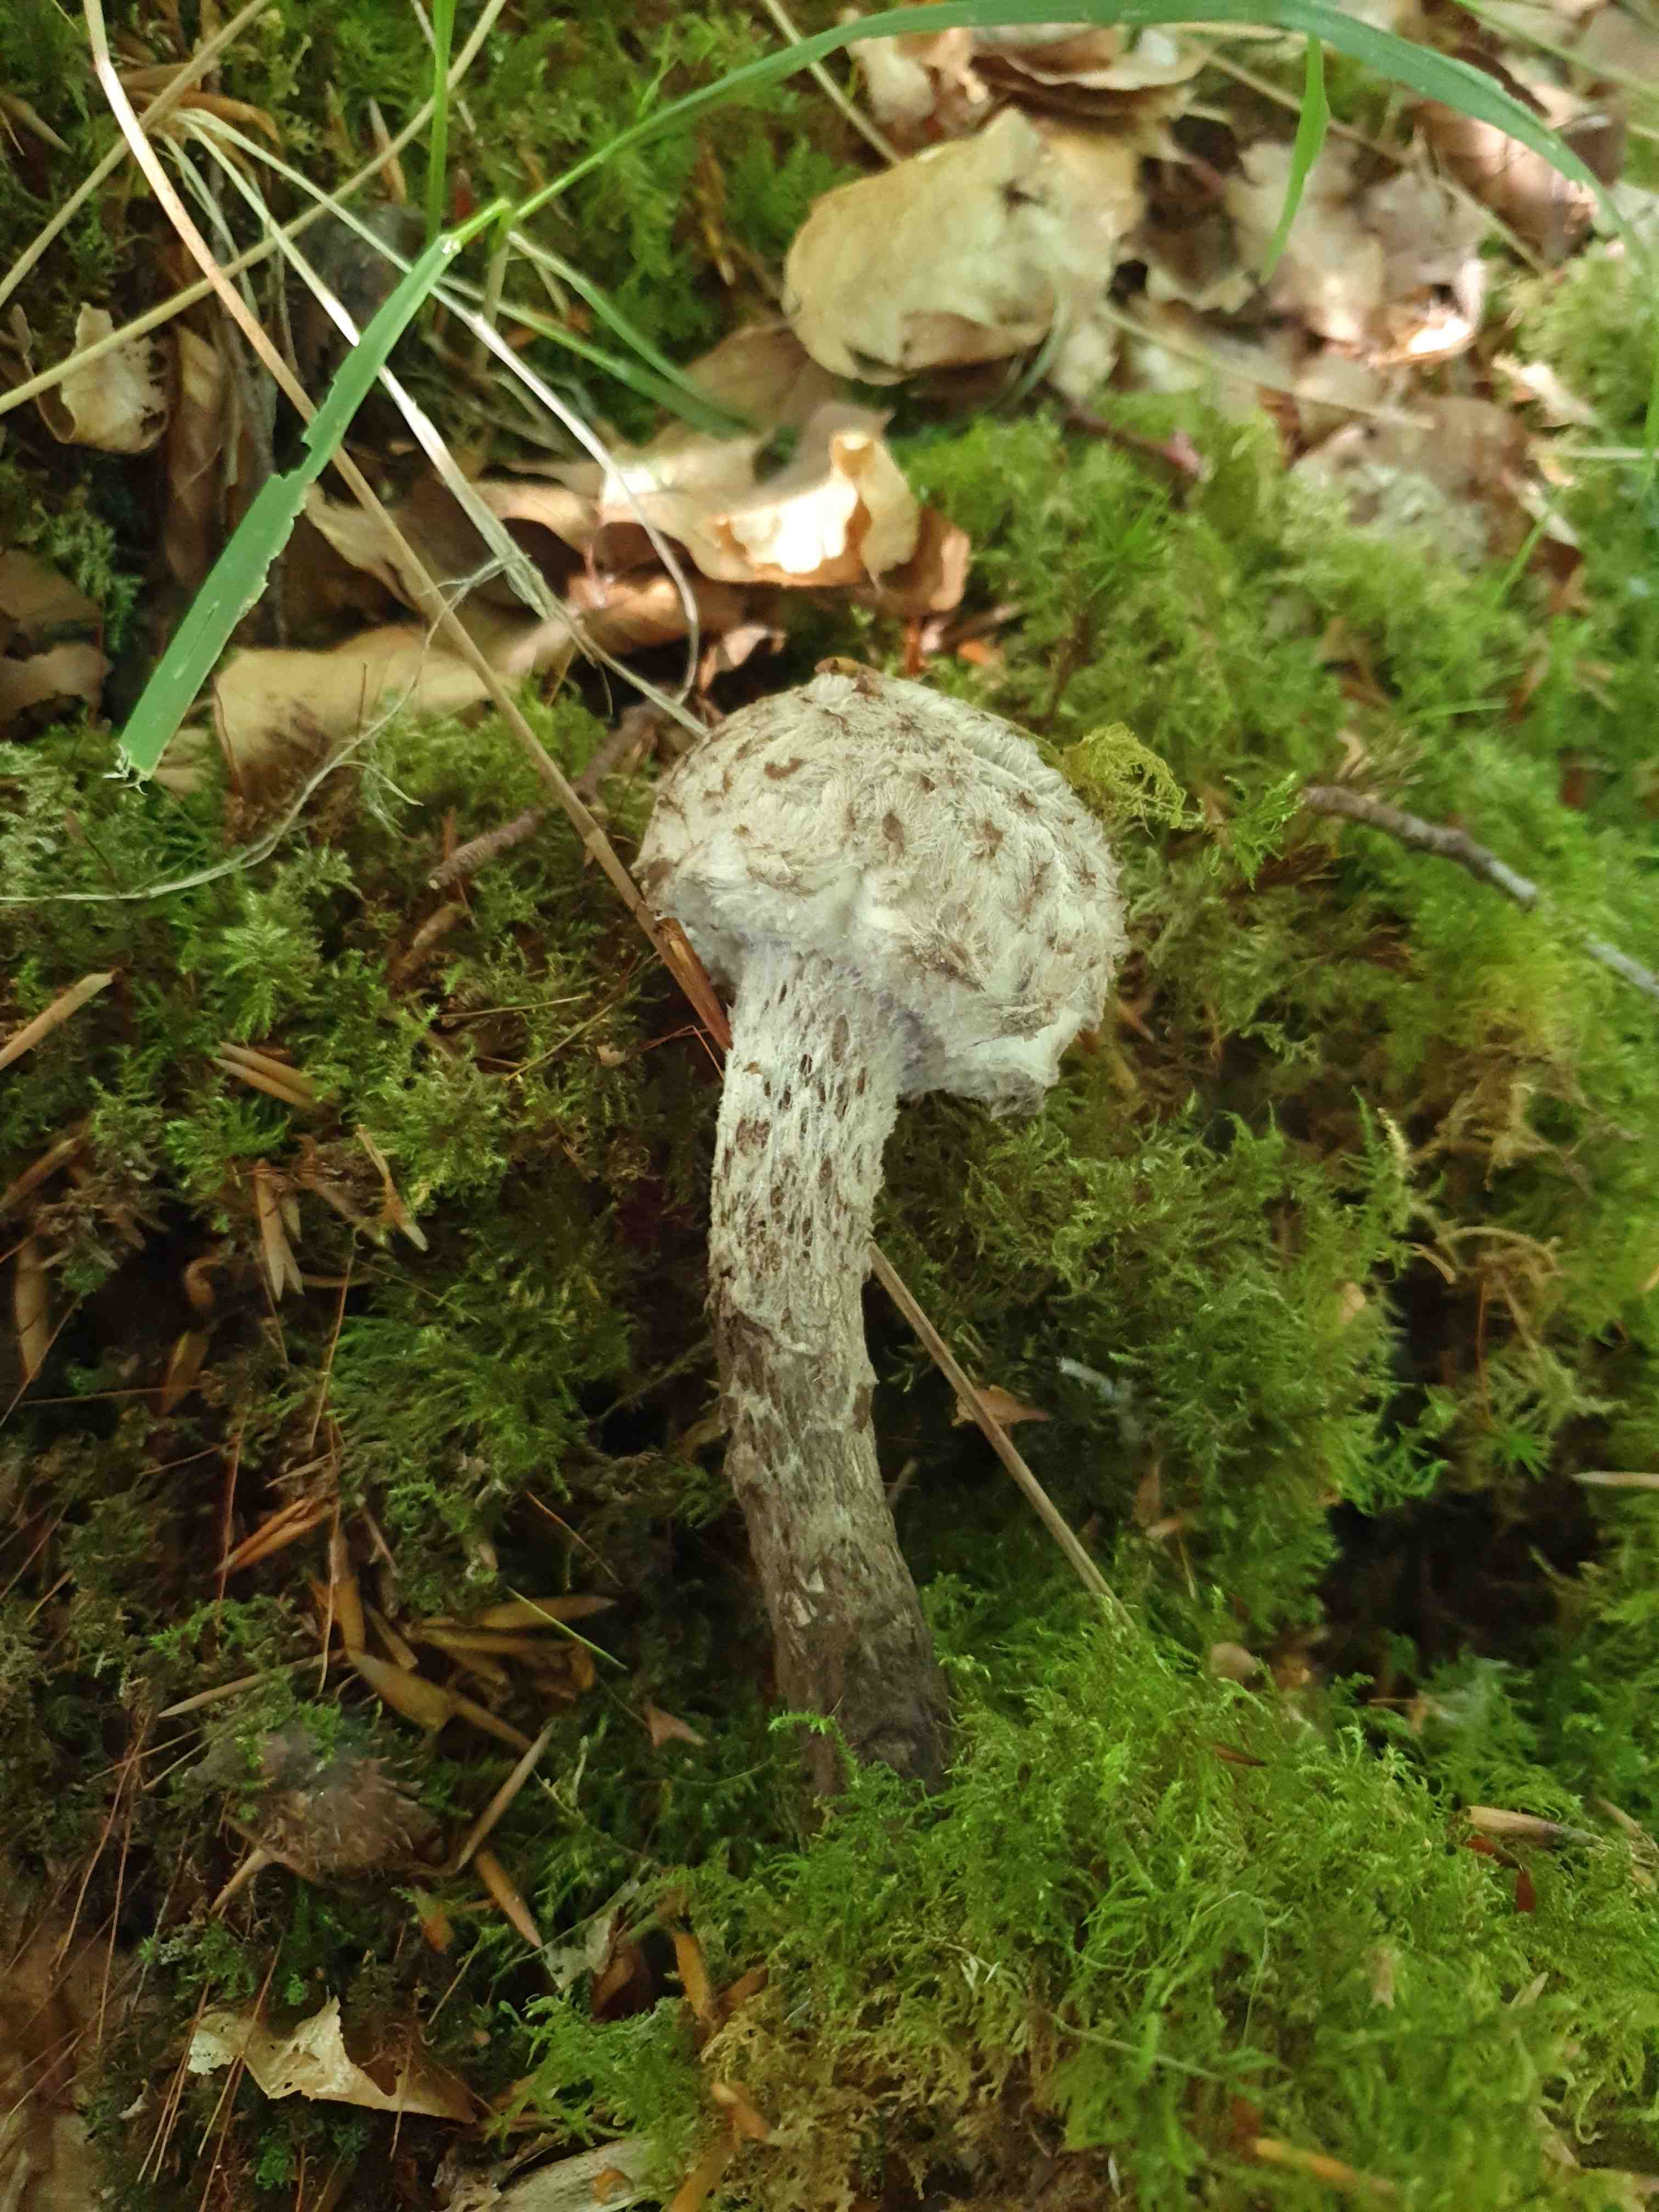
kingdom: Fungi
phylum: Basidiomycota
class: Agaricomycetes
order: Boletales
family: Boletaceae
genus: Strobilomyces
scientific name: Strobilomyces strobilaceus
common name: koglerørhat
